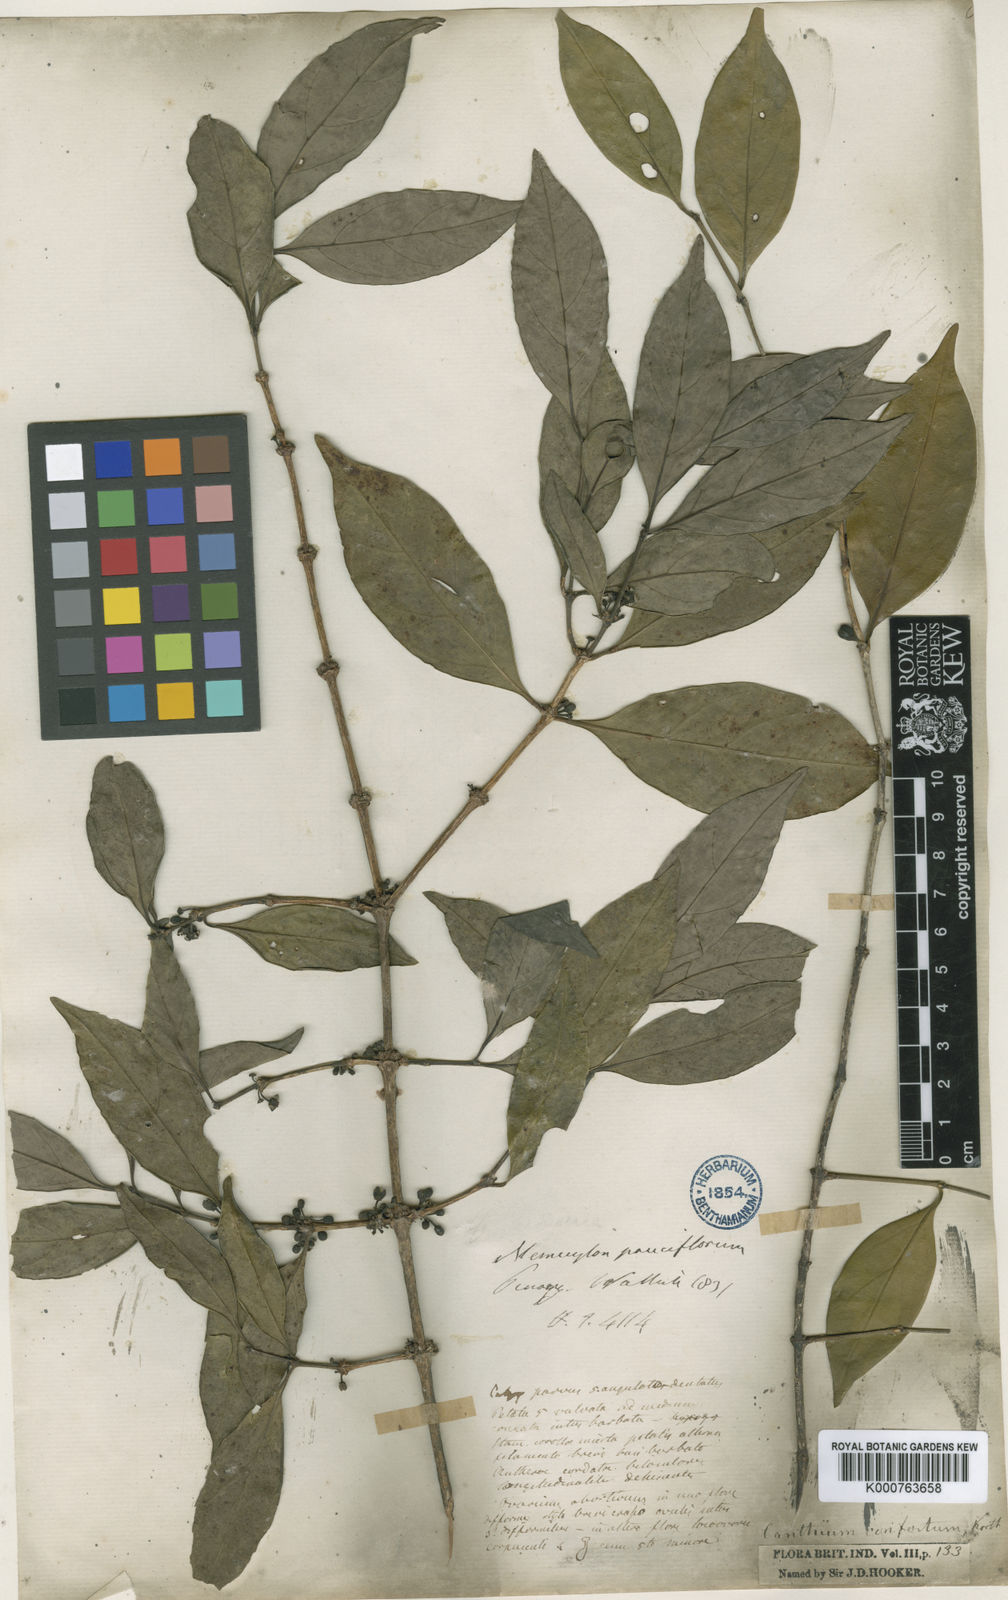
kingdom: Plantae
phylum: Tracheophyta
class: Magnoliopsida
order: Gentianales
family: Rubiaceae
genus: Dibridsonia
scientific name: Dibridsonia conferta
